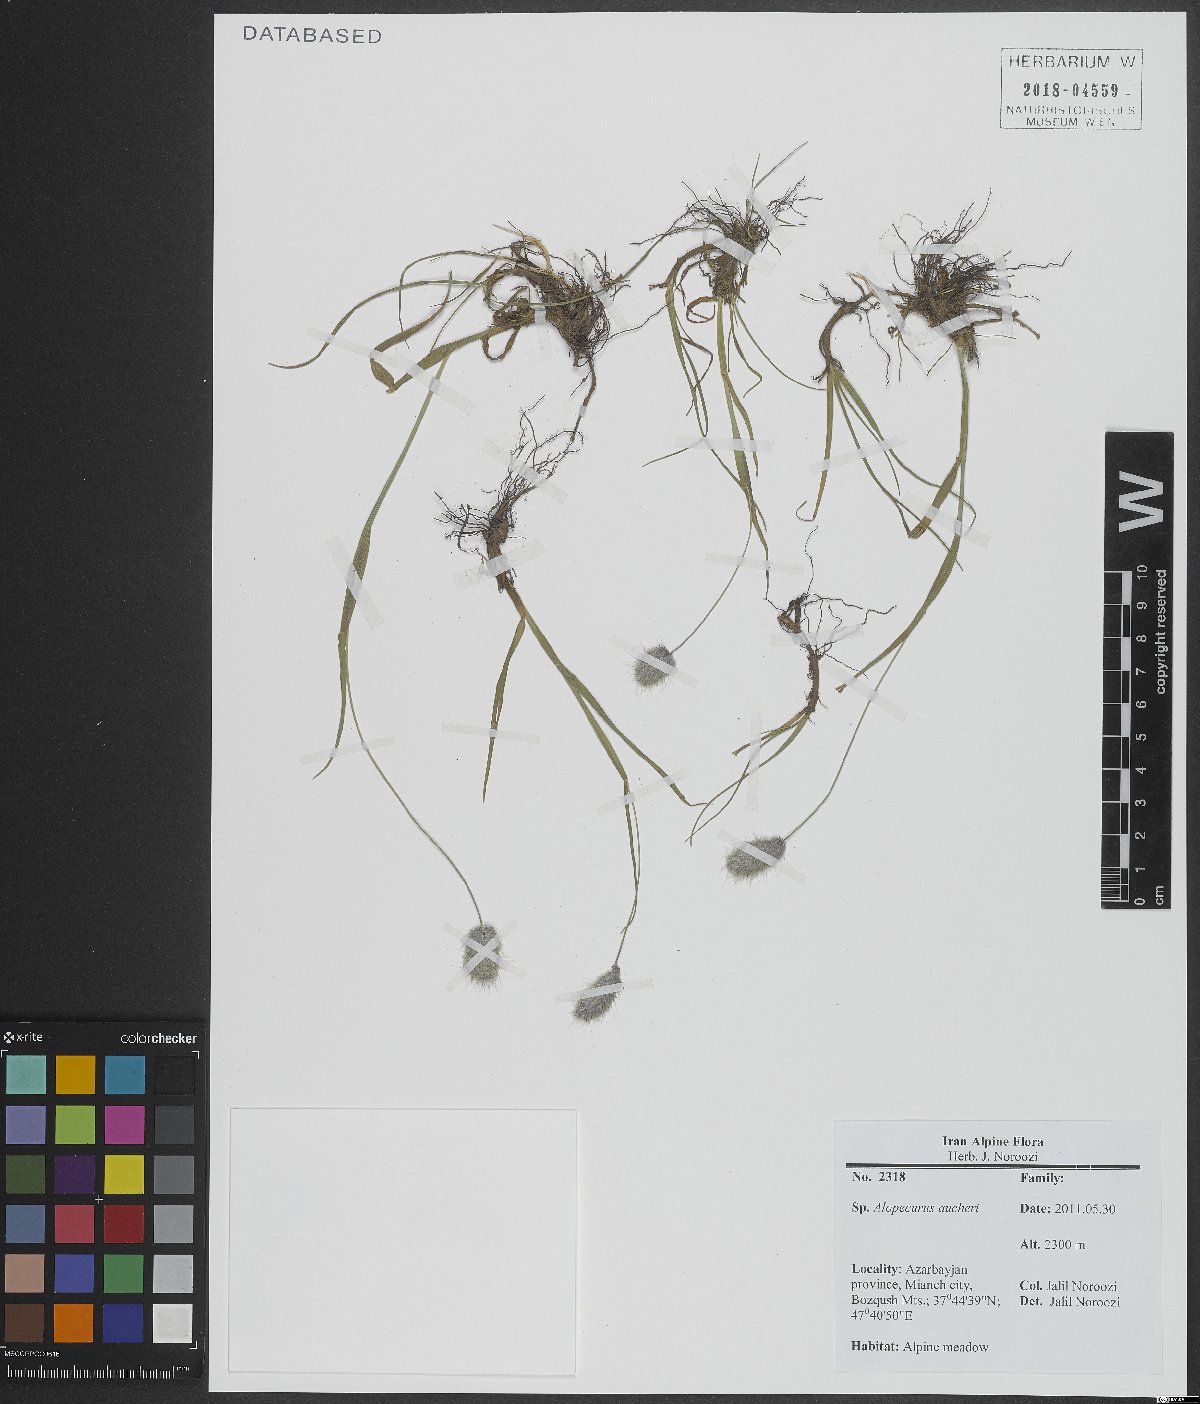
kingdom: Plantae
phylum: Tracheophyta
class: Liliopsida
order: Poales
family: Poaceae
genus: Alopecurus
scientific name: Alopecurus aucheri
